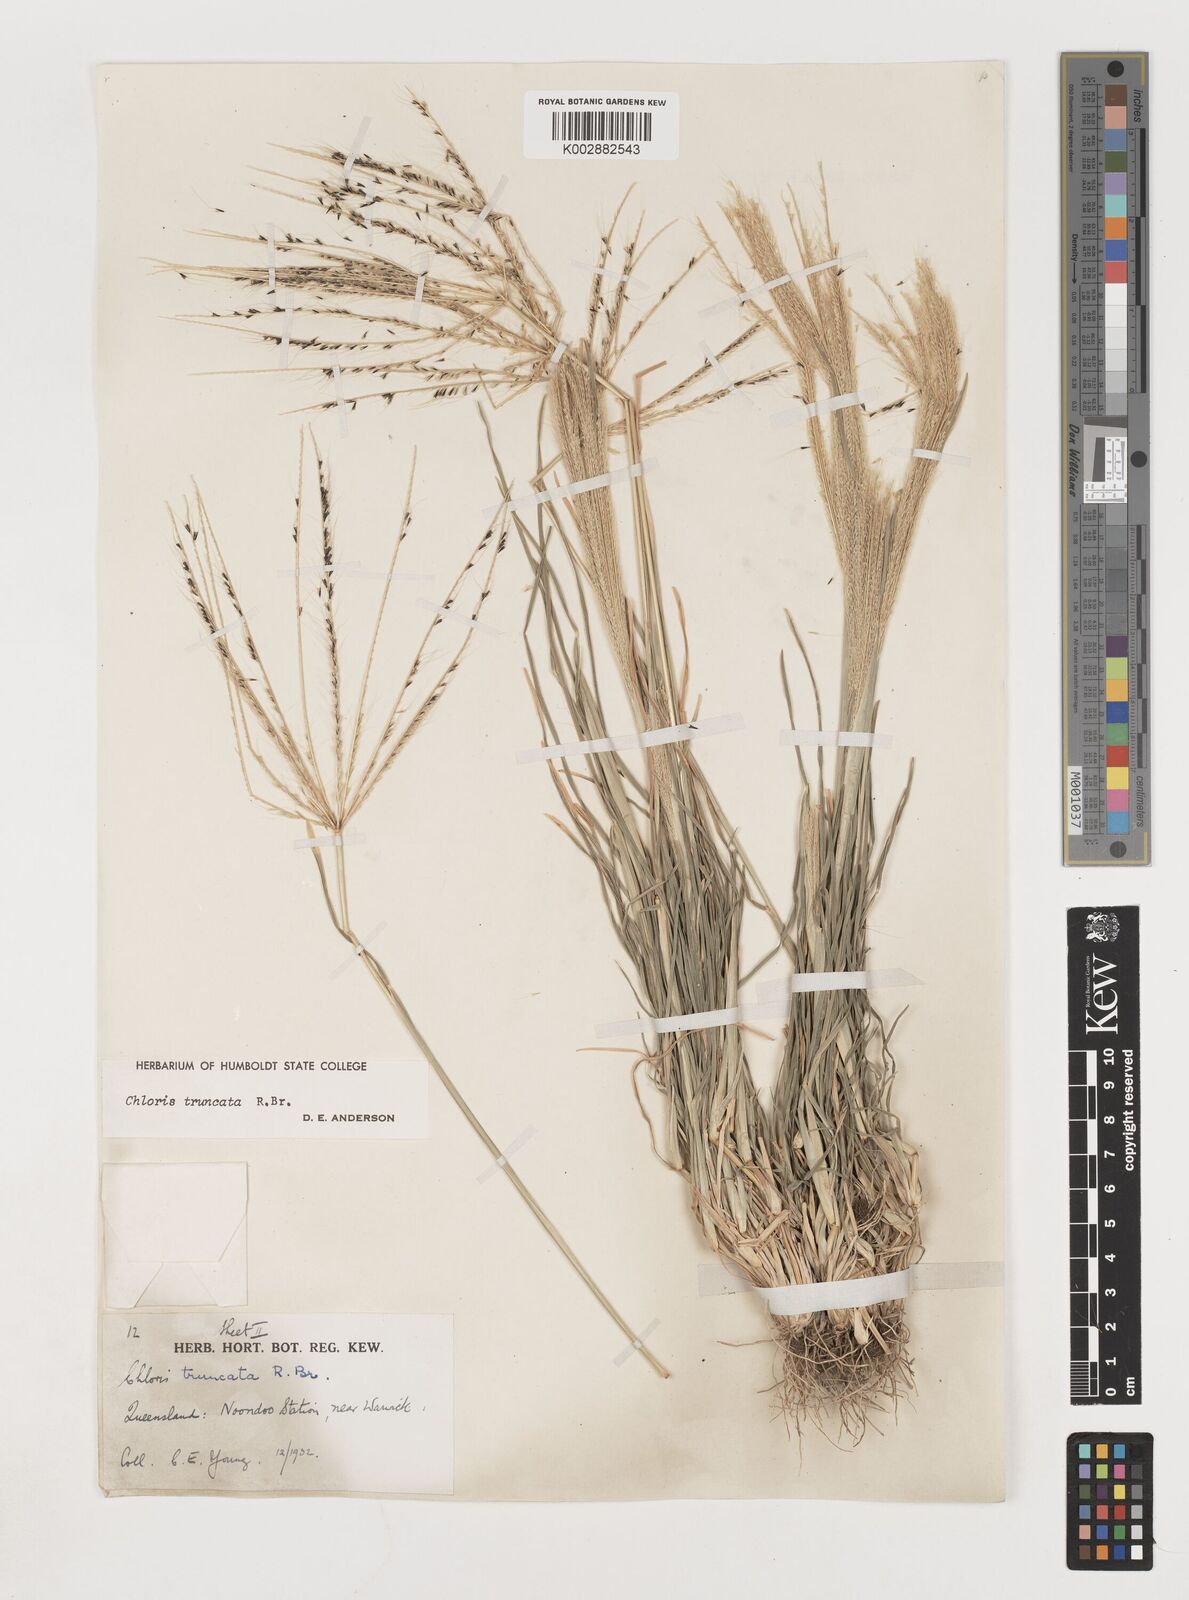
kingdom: Plantae
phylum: Tracheophyta
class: Liliopsida
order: Poales
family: Poaceae
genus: Chloris
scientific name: Chloris truncata
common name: Windmill-grass
